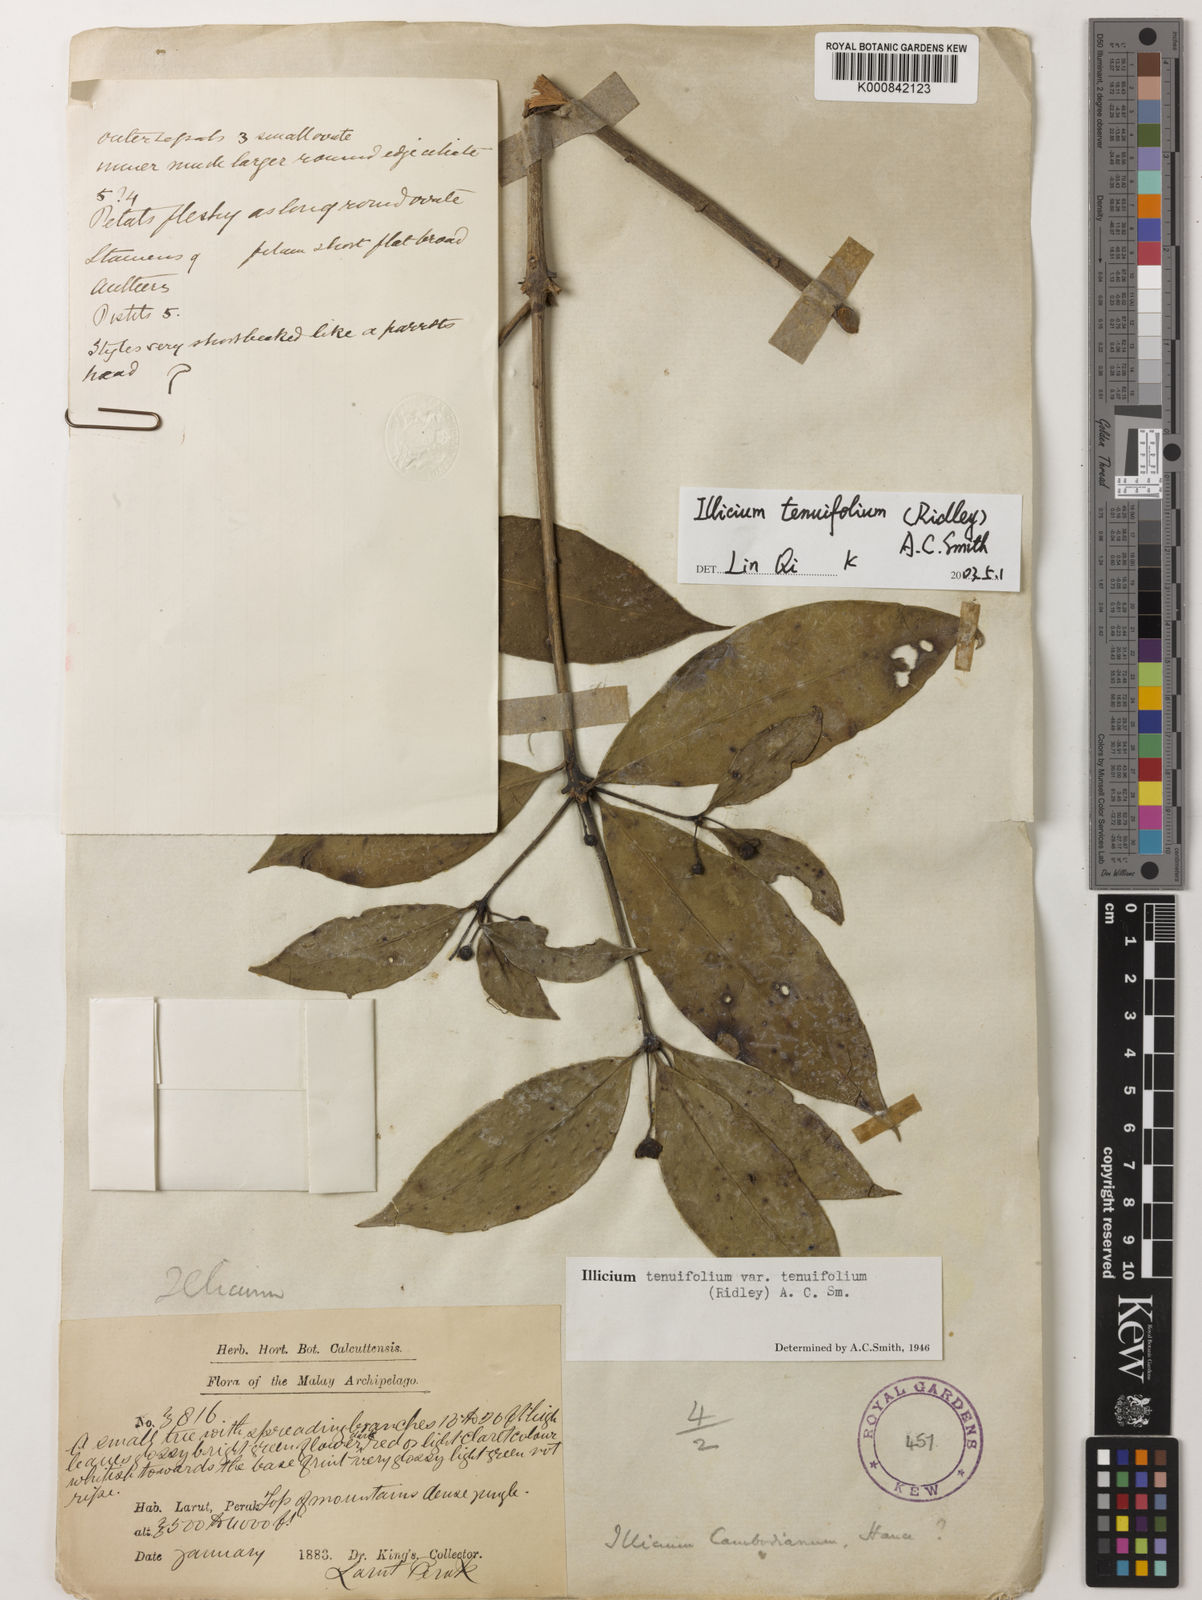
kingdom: Plantae
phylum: Tracheophyta
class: Magnoliopsida
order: Austrobaileyales
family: Schisandraceae
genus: Illicium
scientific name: Illicium tenuifolium
